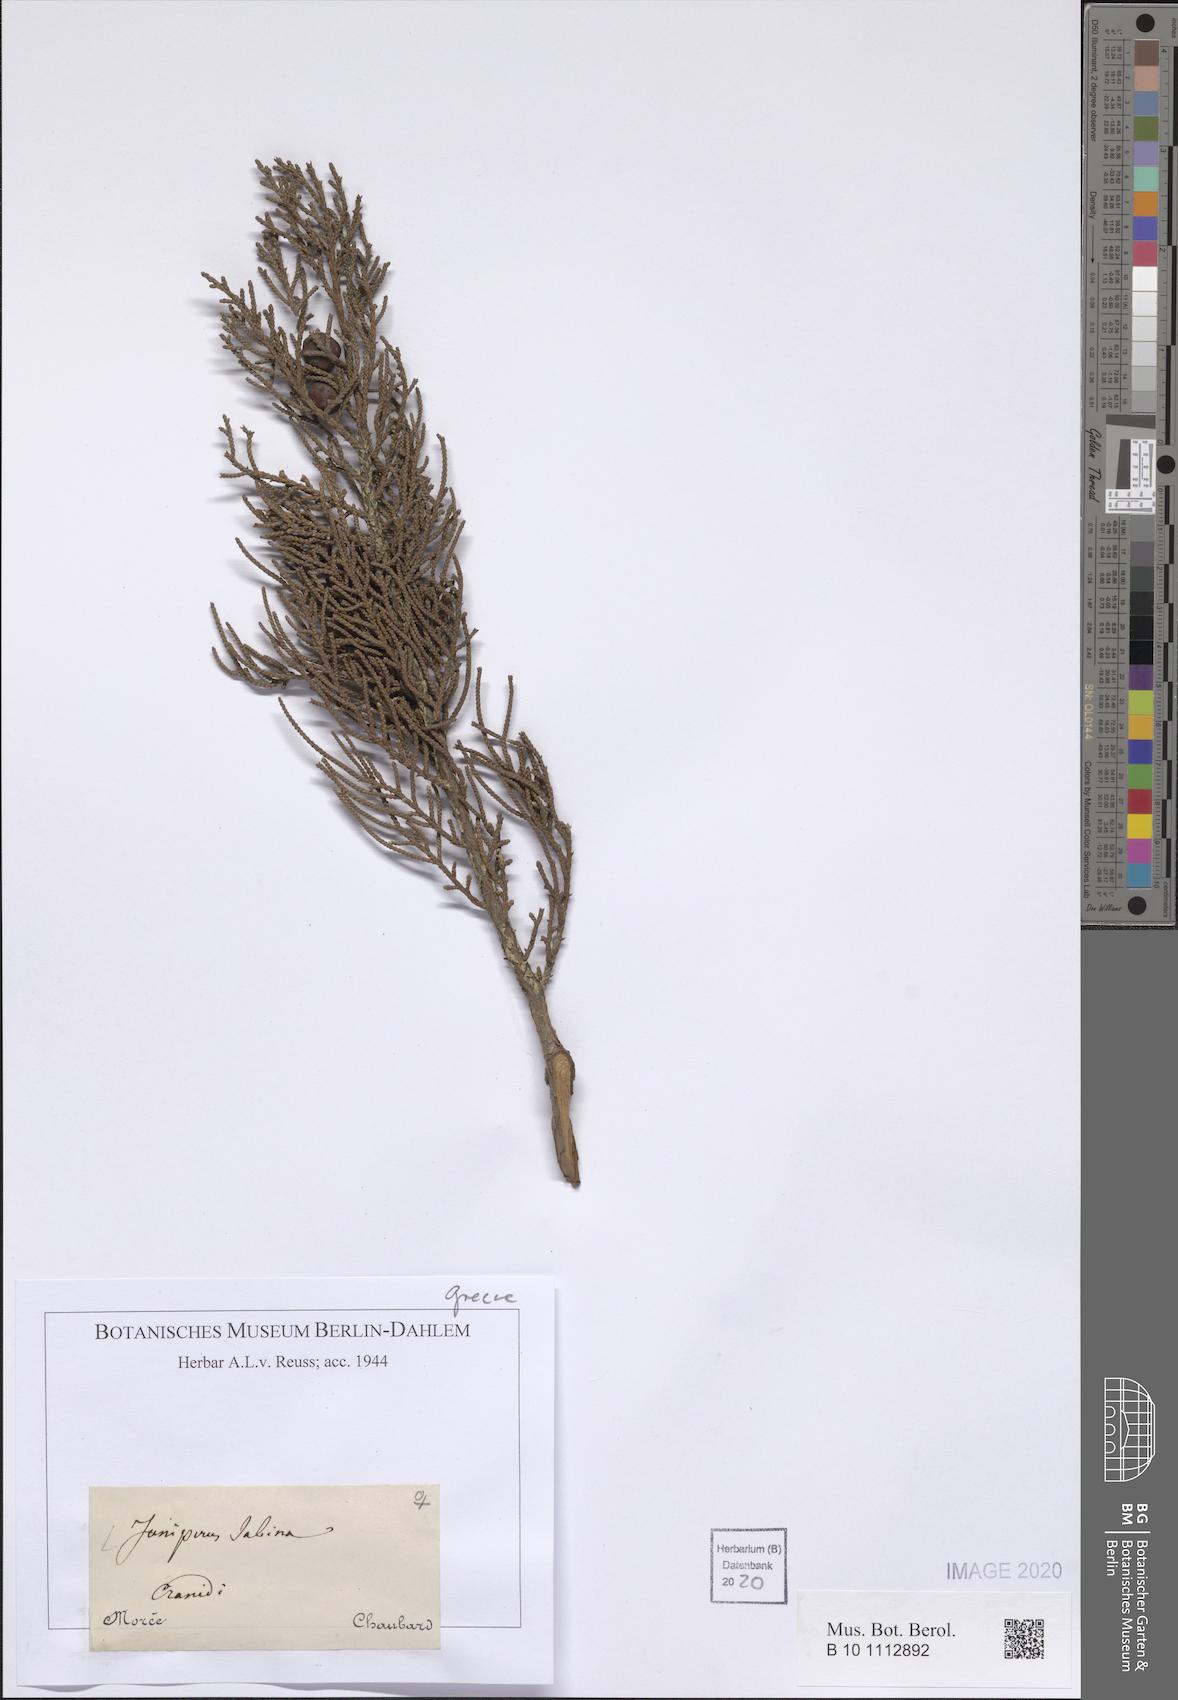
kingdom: Plantae
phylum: Tracheophyta
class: Pinopsida
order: Pinales
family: Cupressaceae
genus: Juniperus
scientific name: Juniperus sabina
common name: Savin
